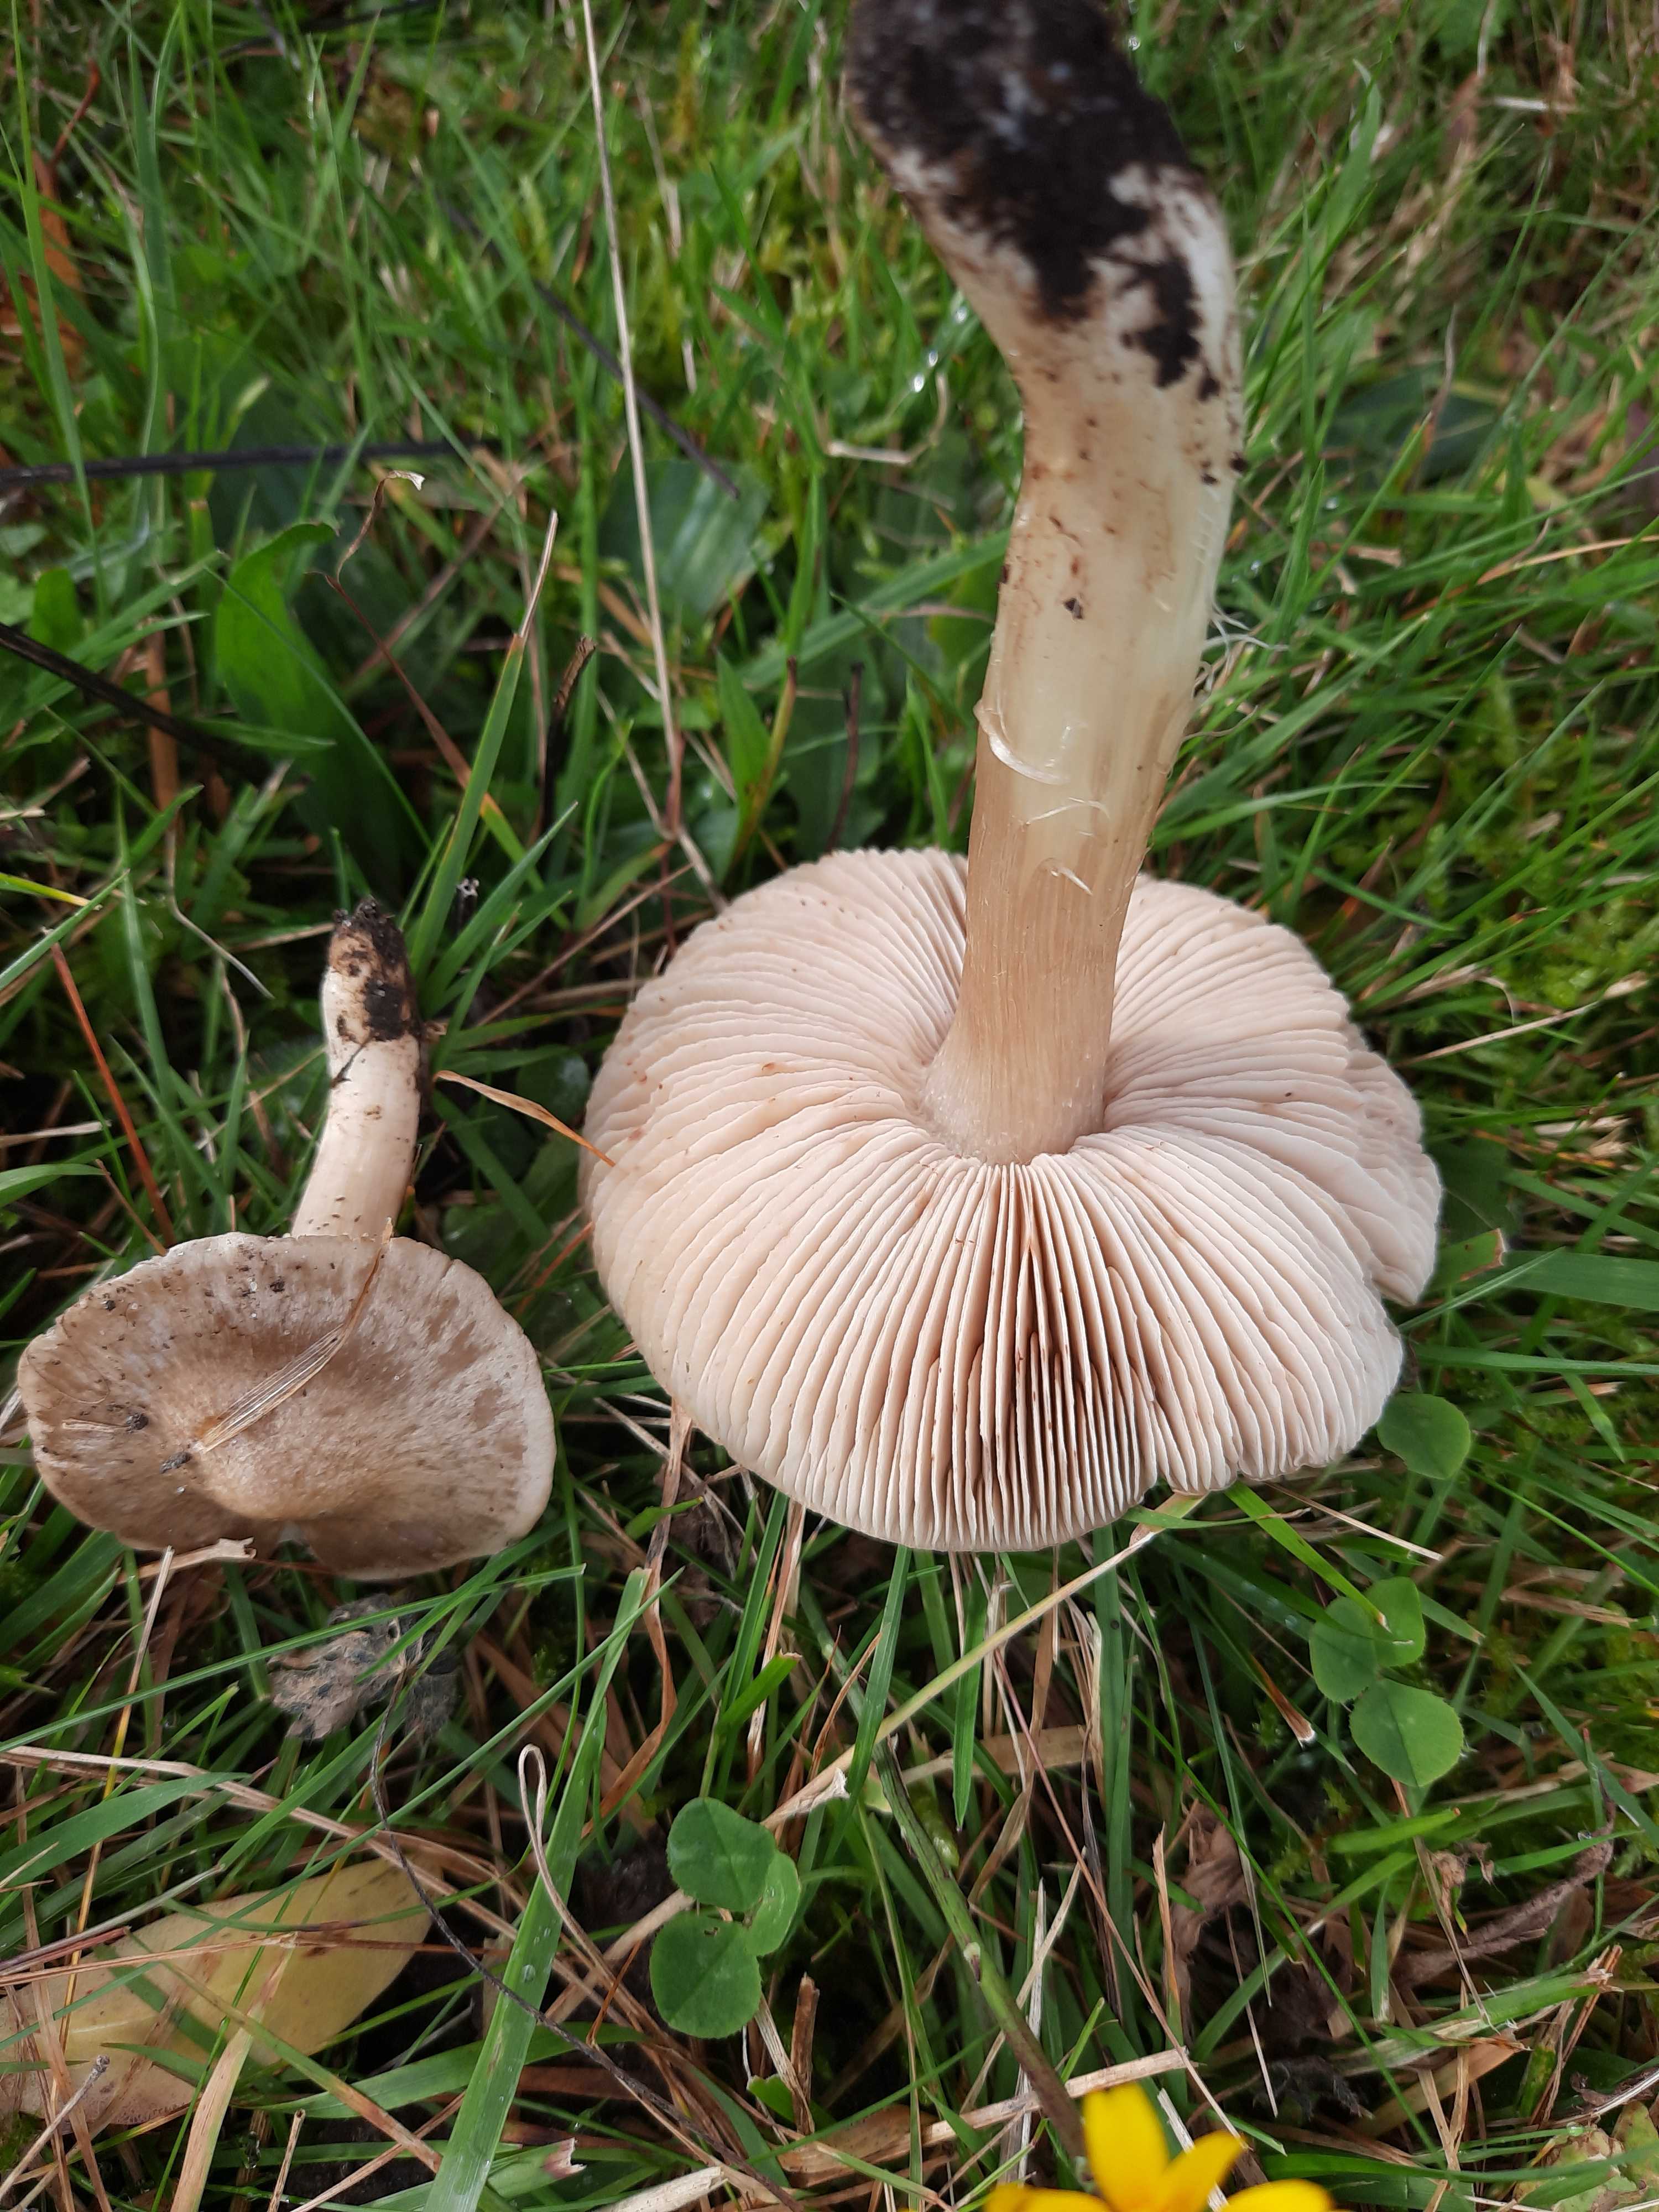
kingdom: Fungi
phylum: Basidiomycota
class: Agaricomycetes
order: Agaricales
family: Entolomataceae
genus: Entoloma
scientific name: Entoloma prunuloides
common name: mel-rødblad
